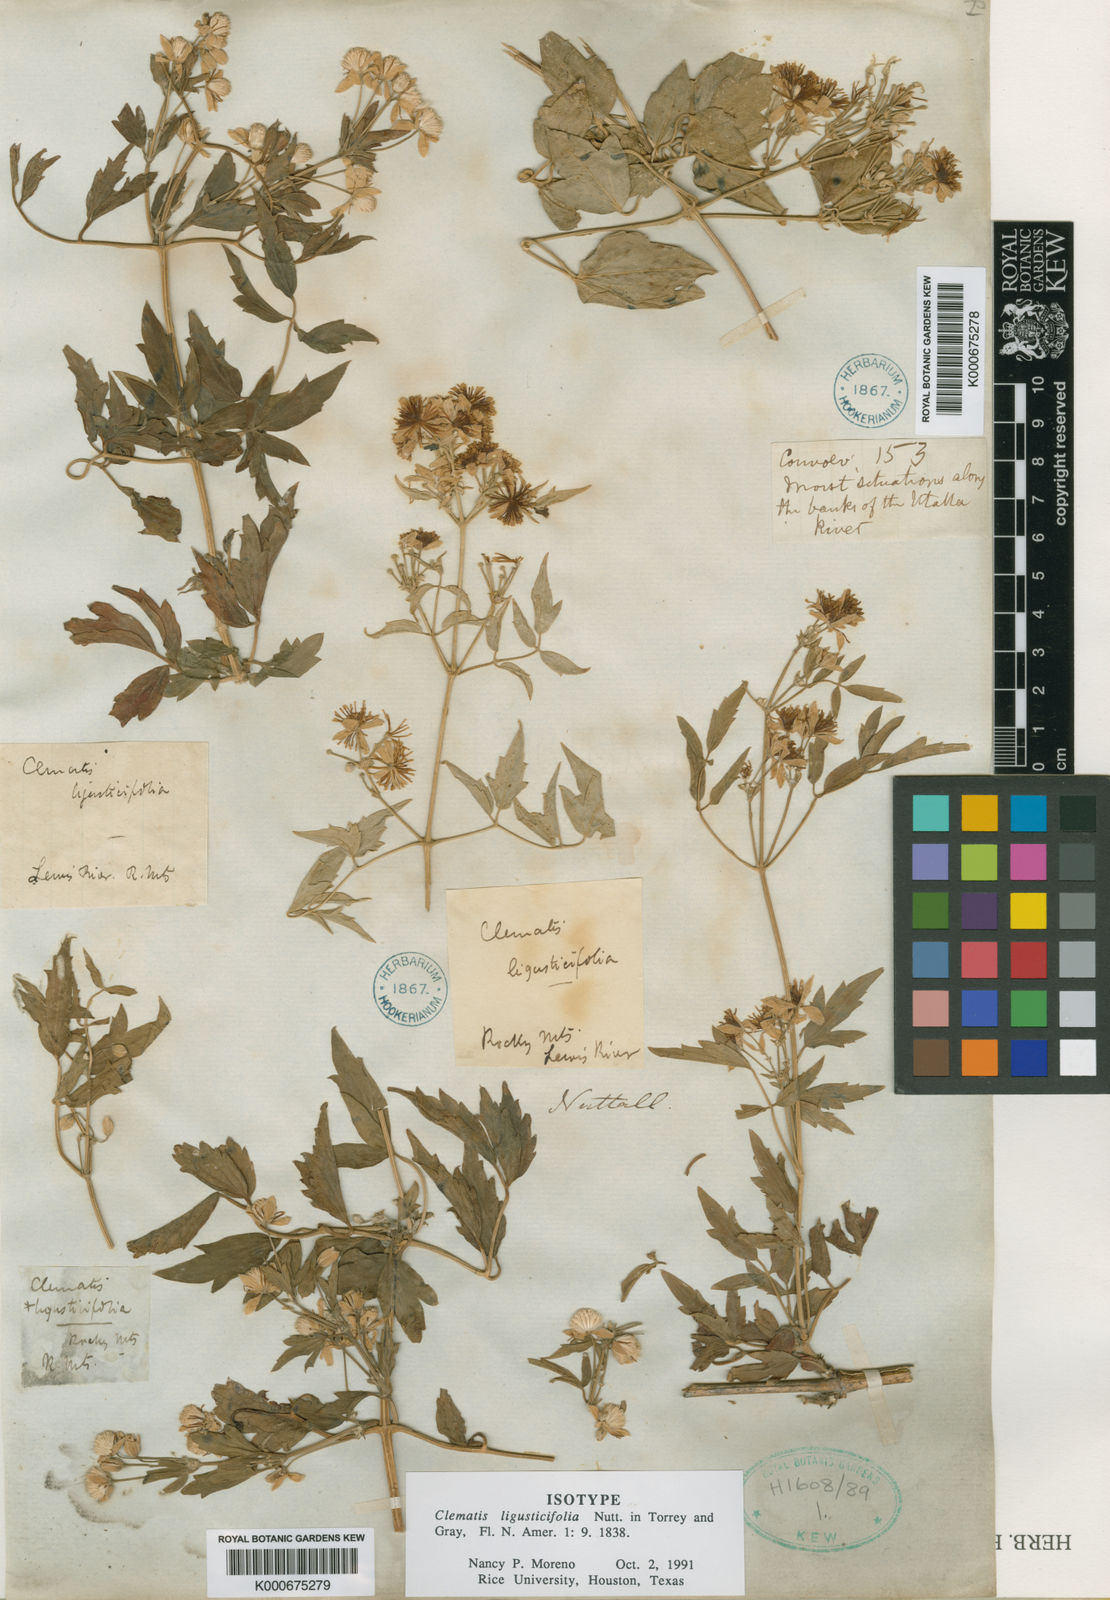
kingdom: Plantae
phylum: Tracheophyta
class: Magnoliopsida
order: Ranunculales
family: Ranunculaceae
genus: Clematis
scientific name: Clematis ligusticifolia
